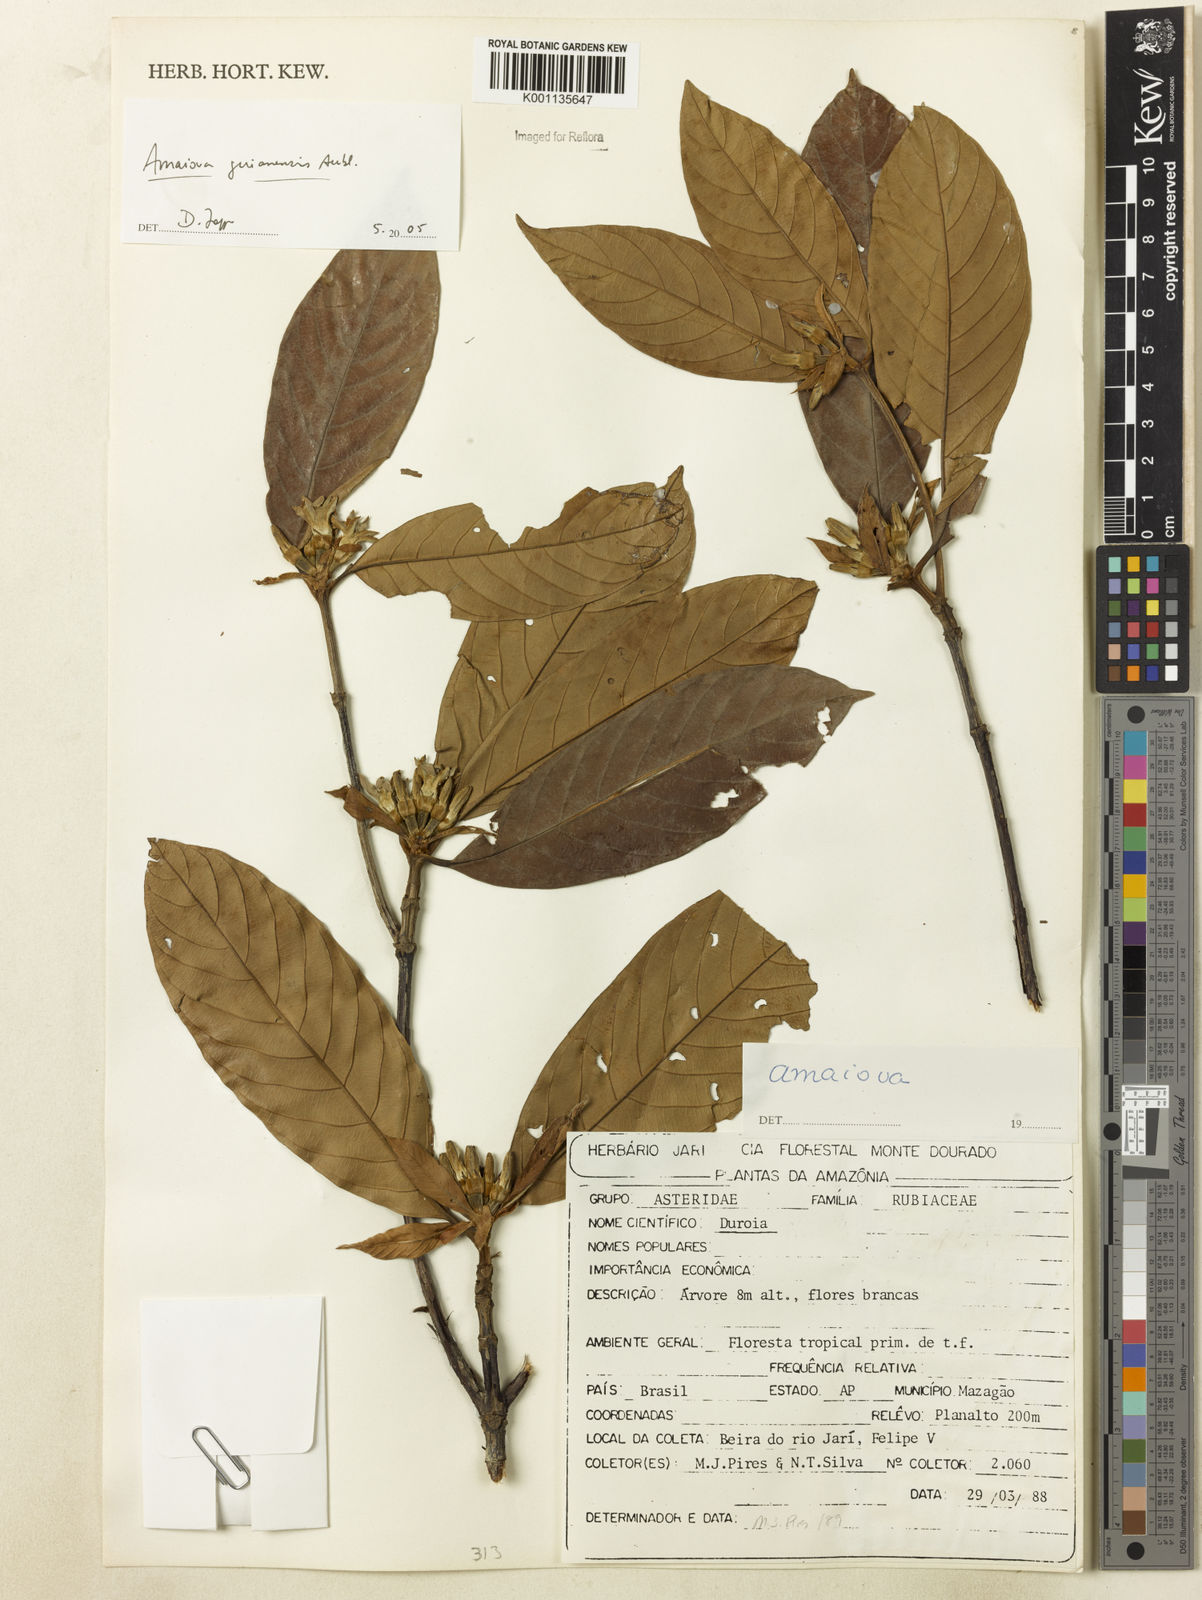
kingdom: Plantae
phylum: Tracheophyta
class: Magnoliopsida
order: Gentianales
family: Rubiaceae
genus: Amaioua
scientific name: Amaioua guianensis
